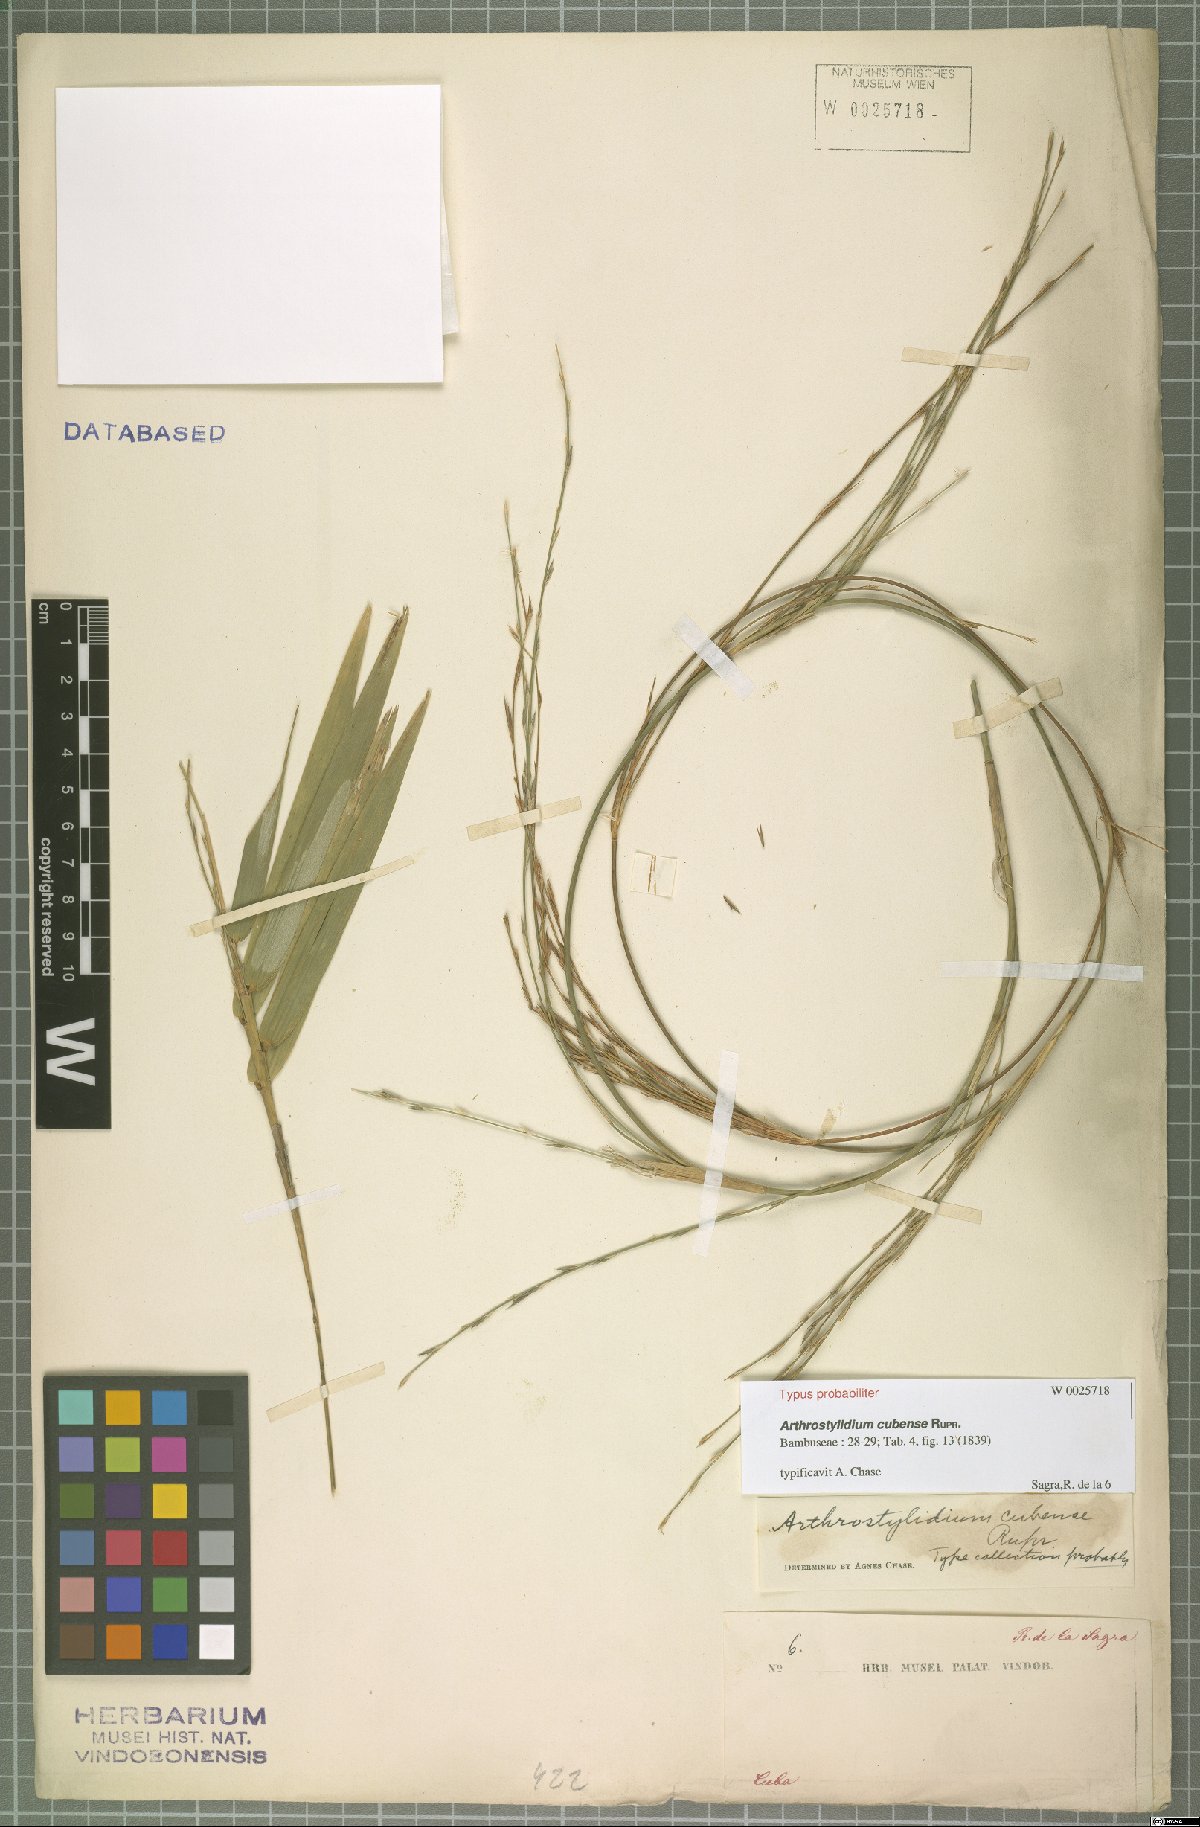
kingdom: Plantae
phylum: Tracheophyta
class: Liliopsida
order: Poales
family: Poaceae
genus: Arthrostylidium
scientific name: Arthrostylidium cubense
